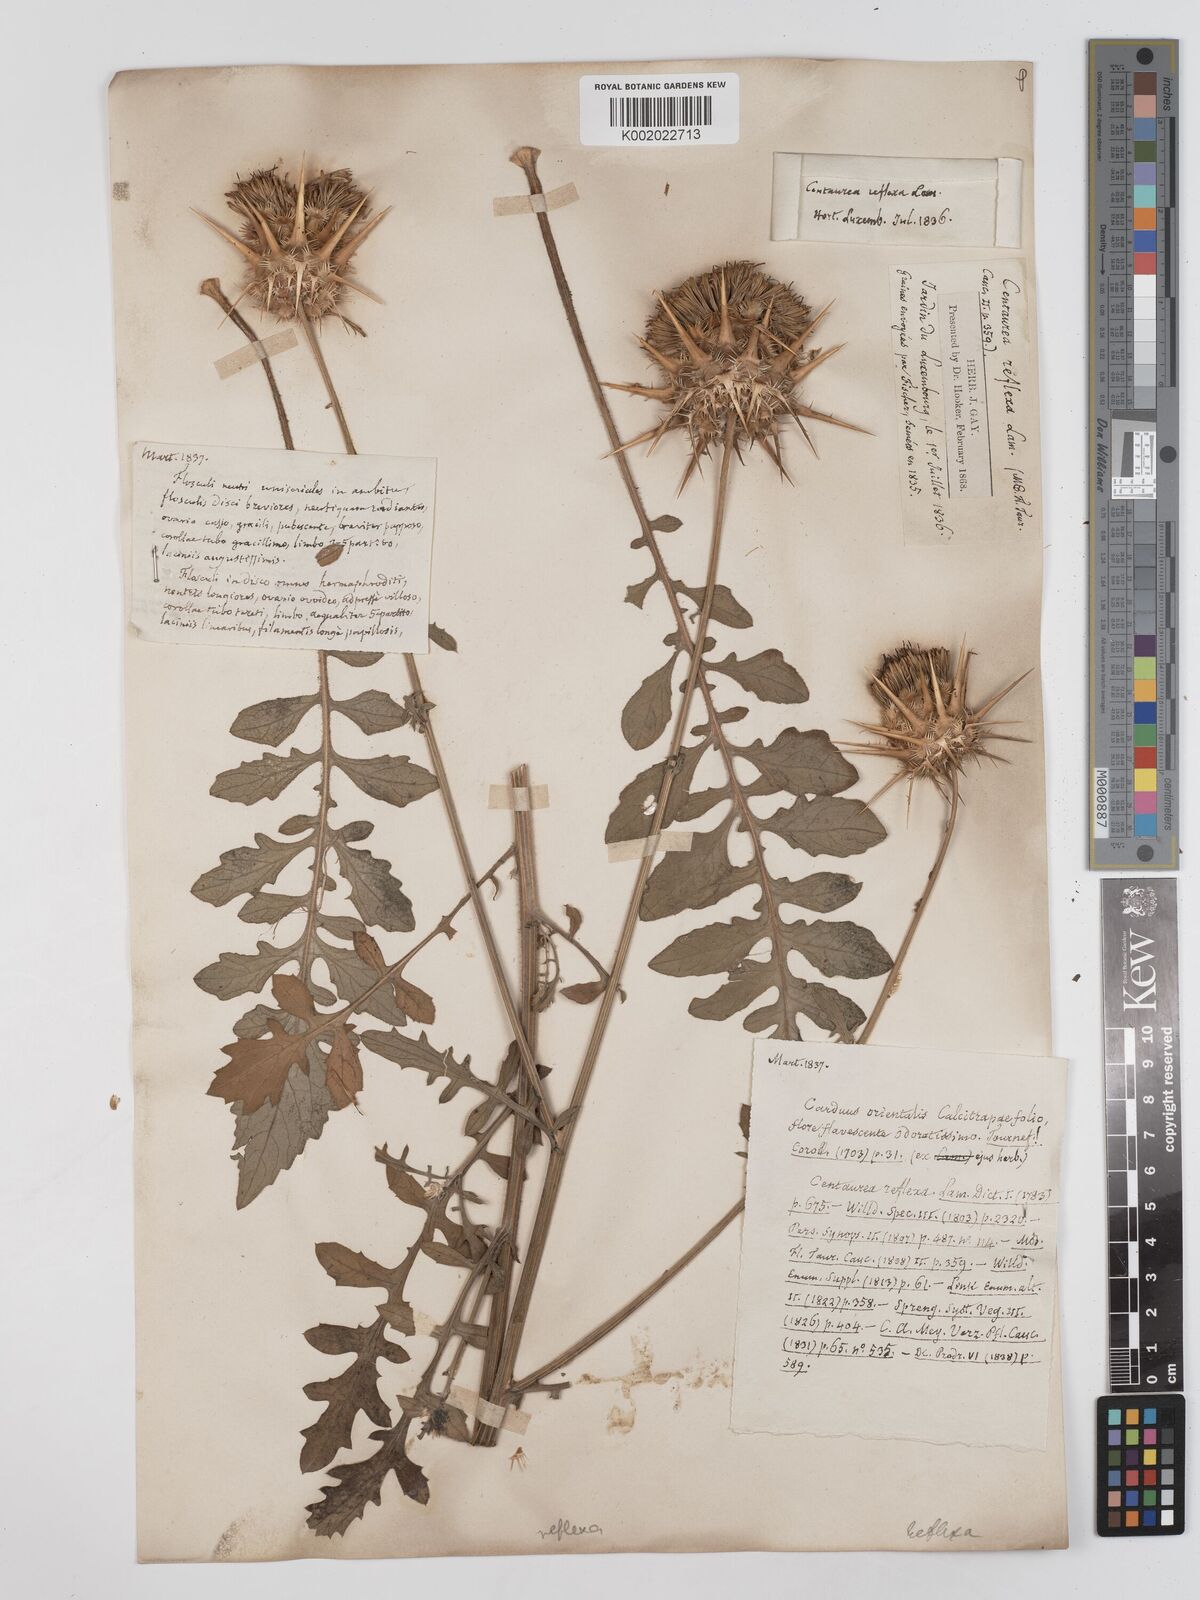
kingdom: Plantae
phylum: Tracheophyta
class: Magnoliopsida
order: Asterales
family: Asteraceae
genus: Centaurea
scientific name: Centaurea reflexa
